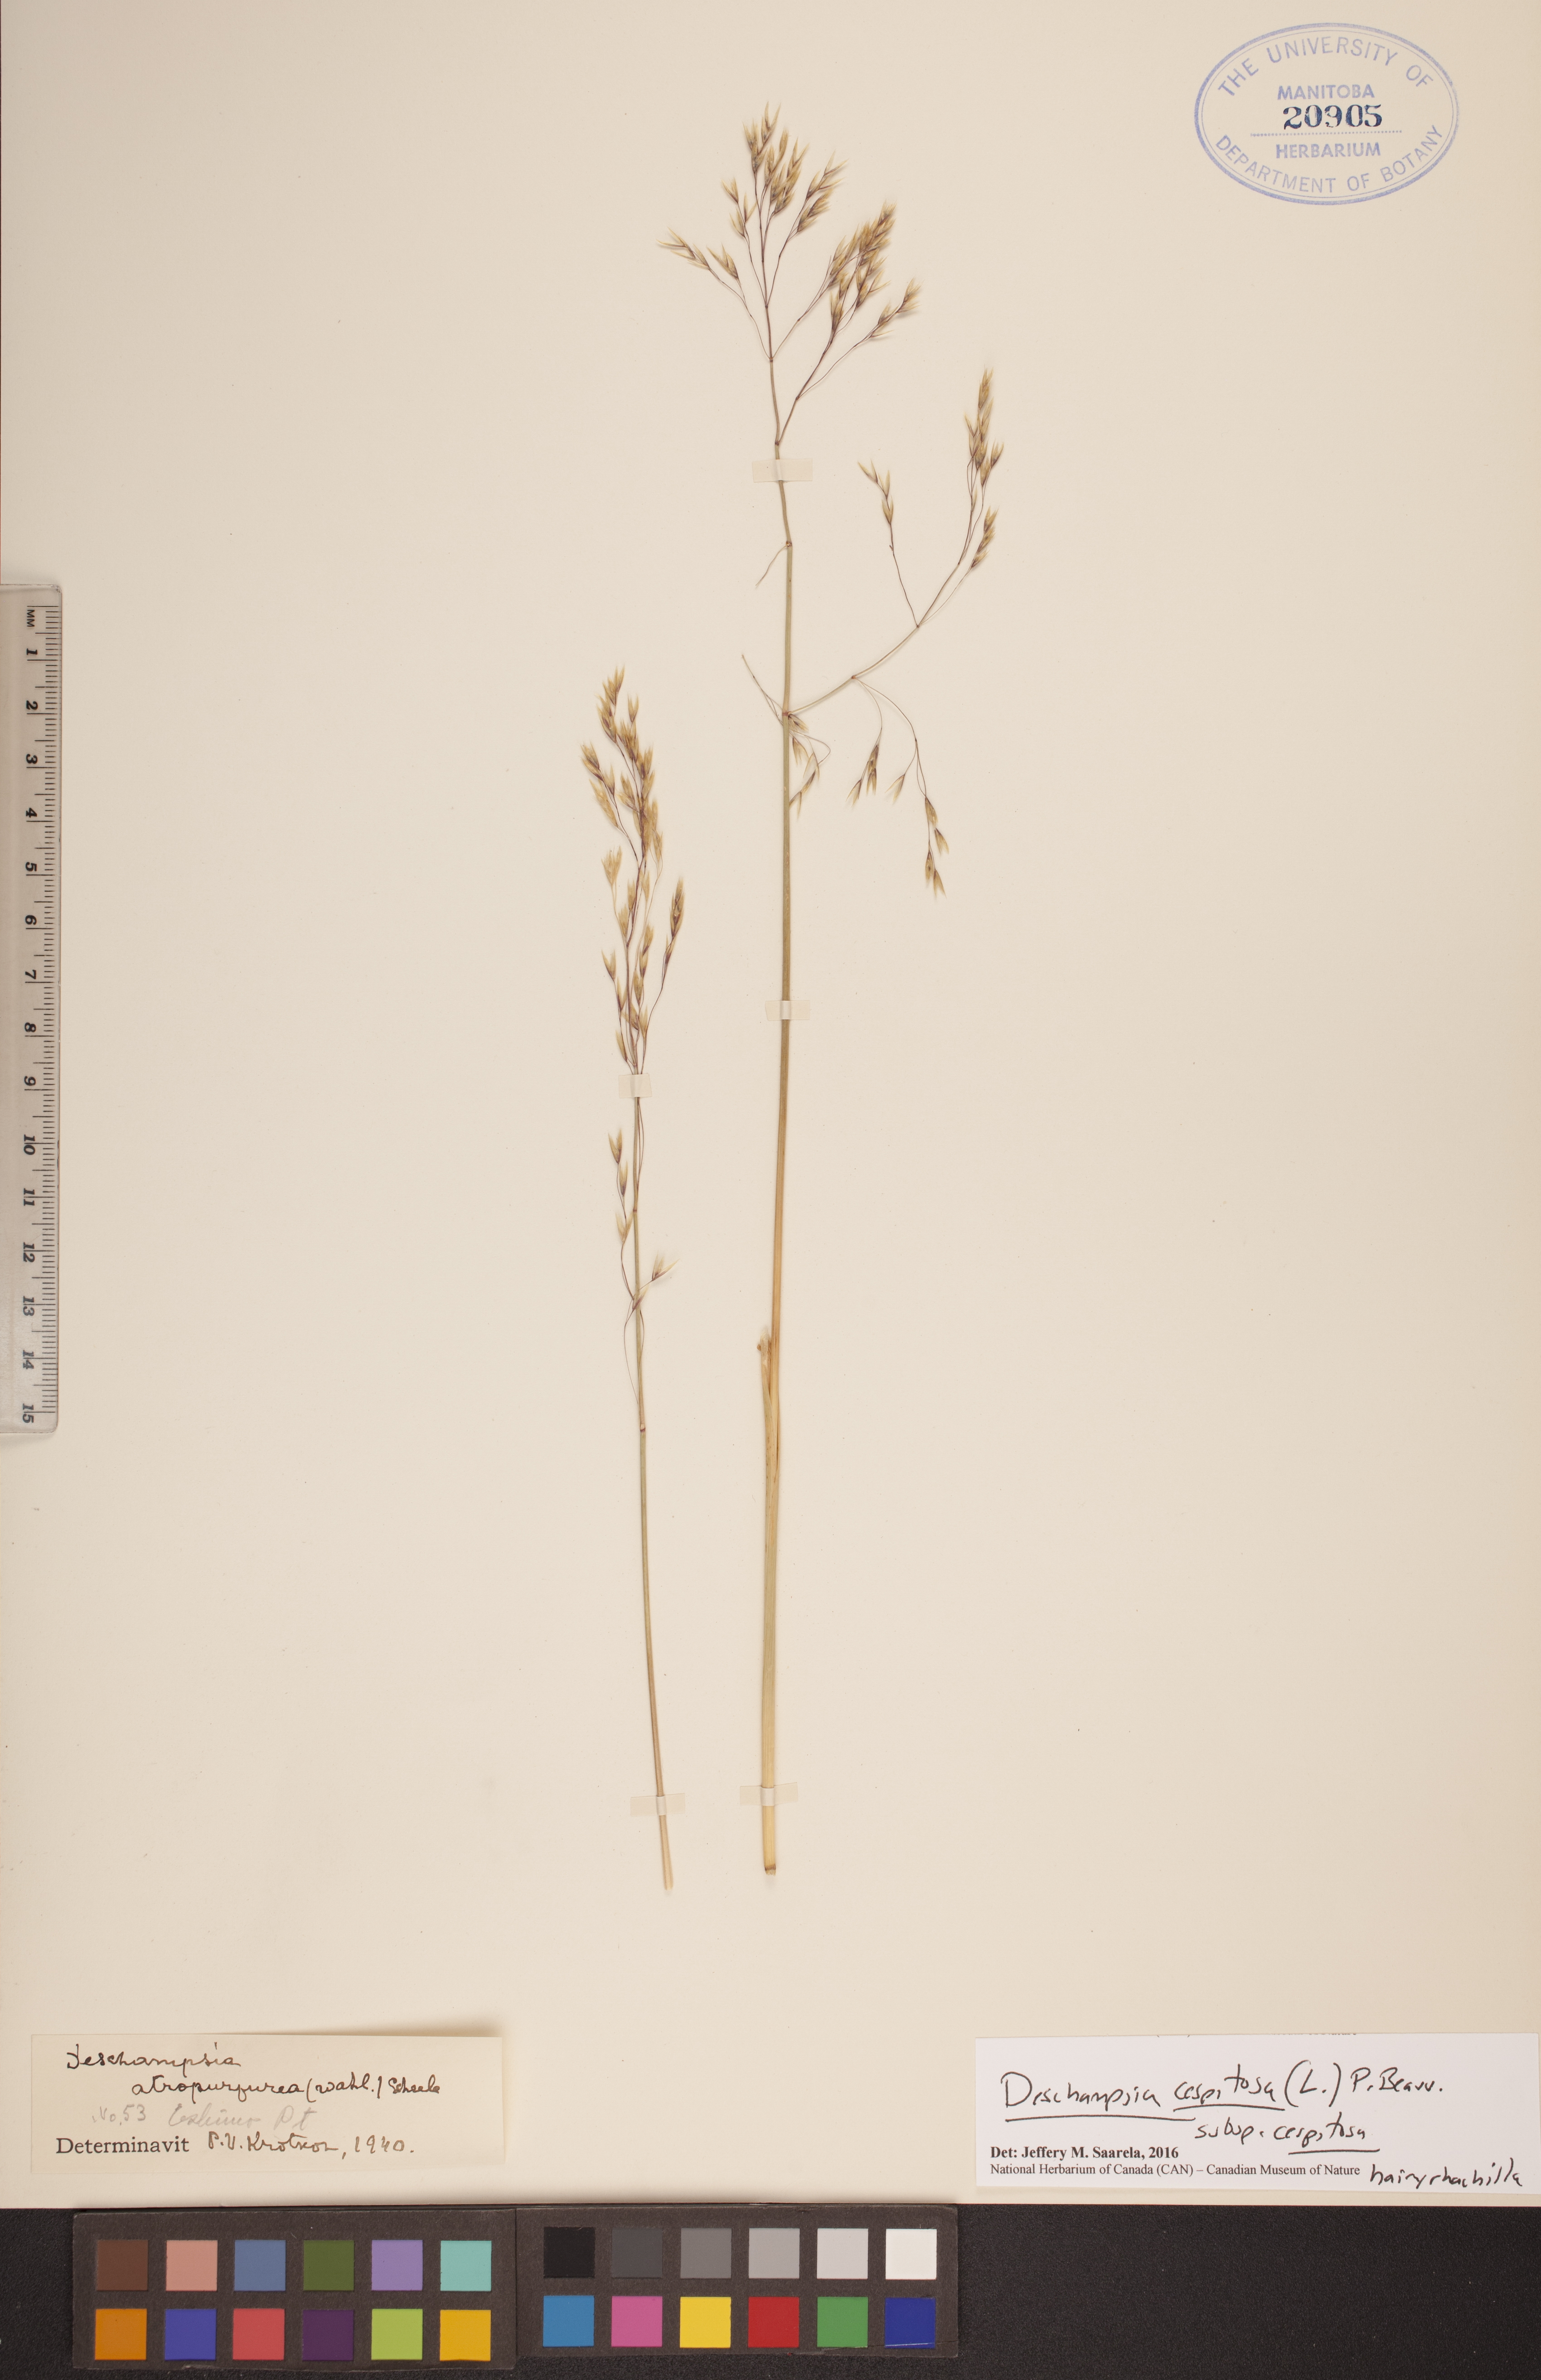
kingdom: Plantae
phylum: Tracheophyta
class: Liliopsida
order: Poales
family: Poaceae
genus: Deschampsia
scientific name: Deschampsia cespitosa
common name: Tufted hair-grass
